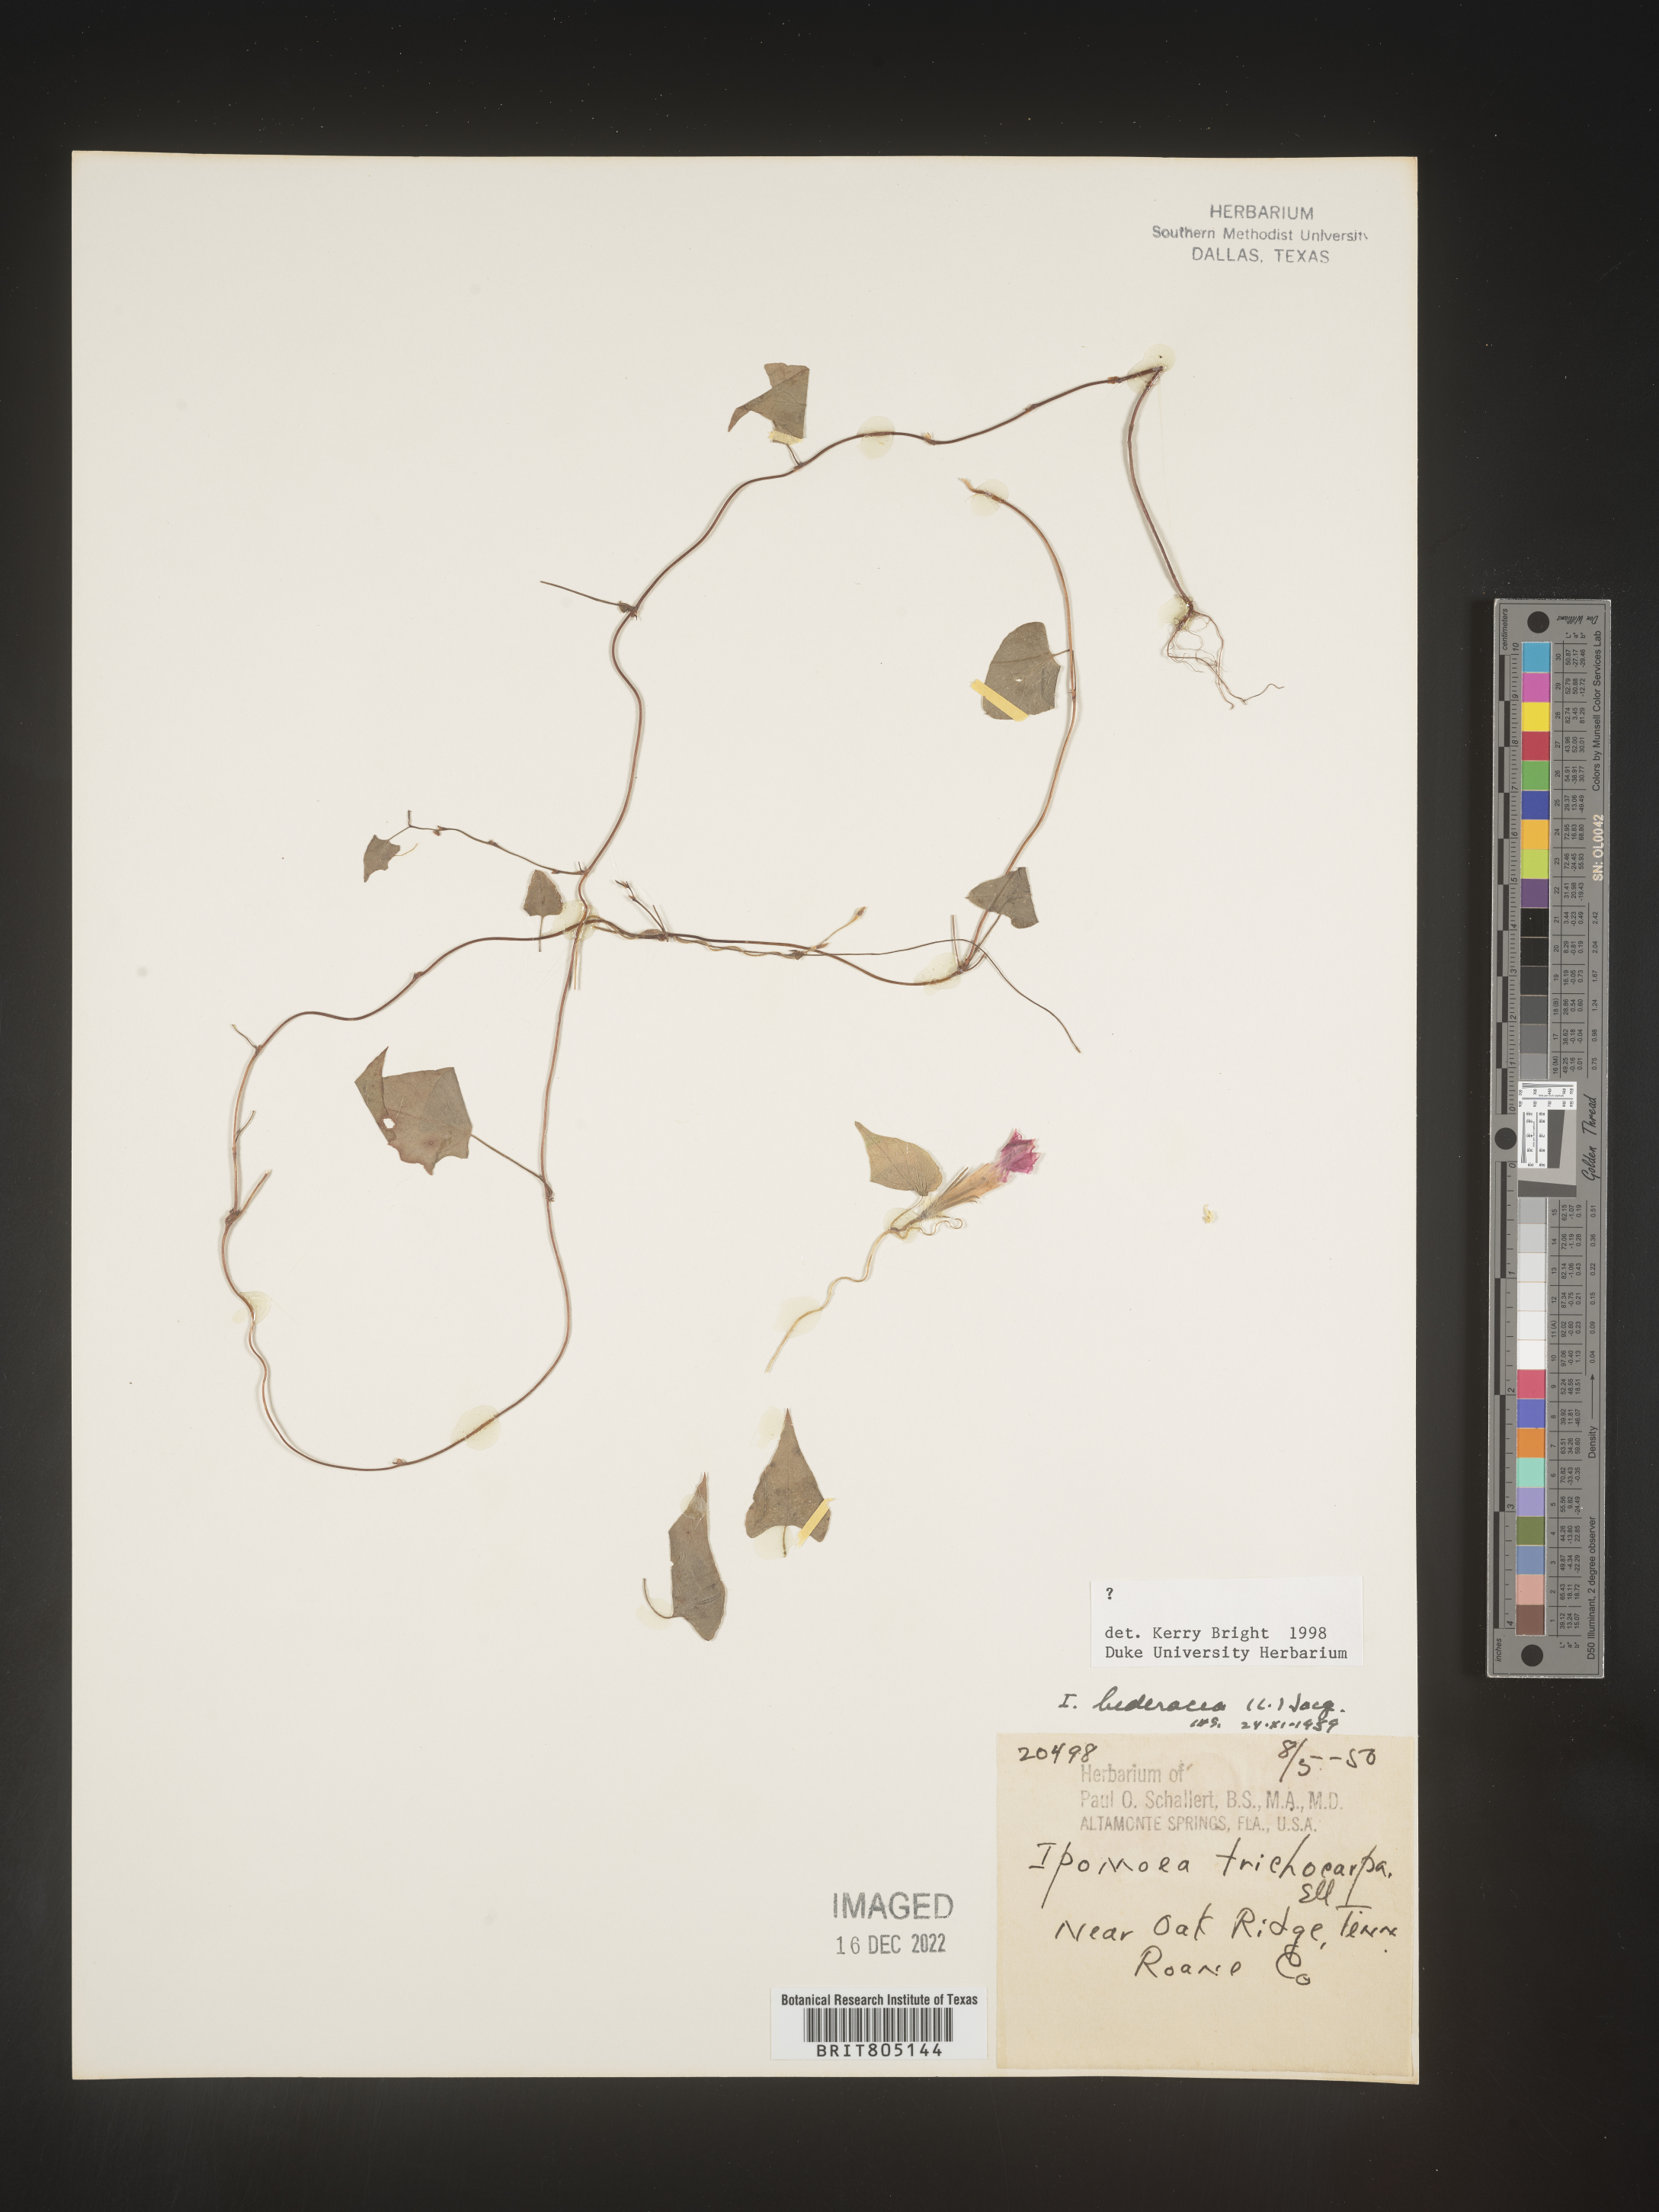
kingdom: Plantae
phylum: Tracheophyta
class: Magnoliopsida
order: Solanales
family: Convolvulaceae
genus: Ipomoea
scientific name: Ipomoea
